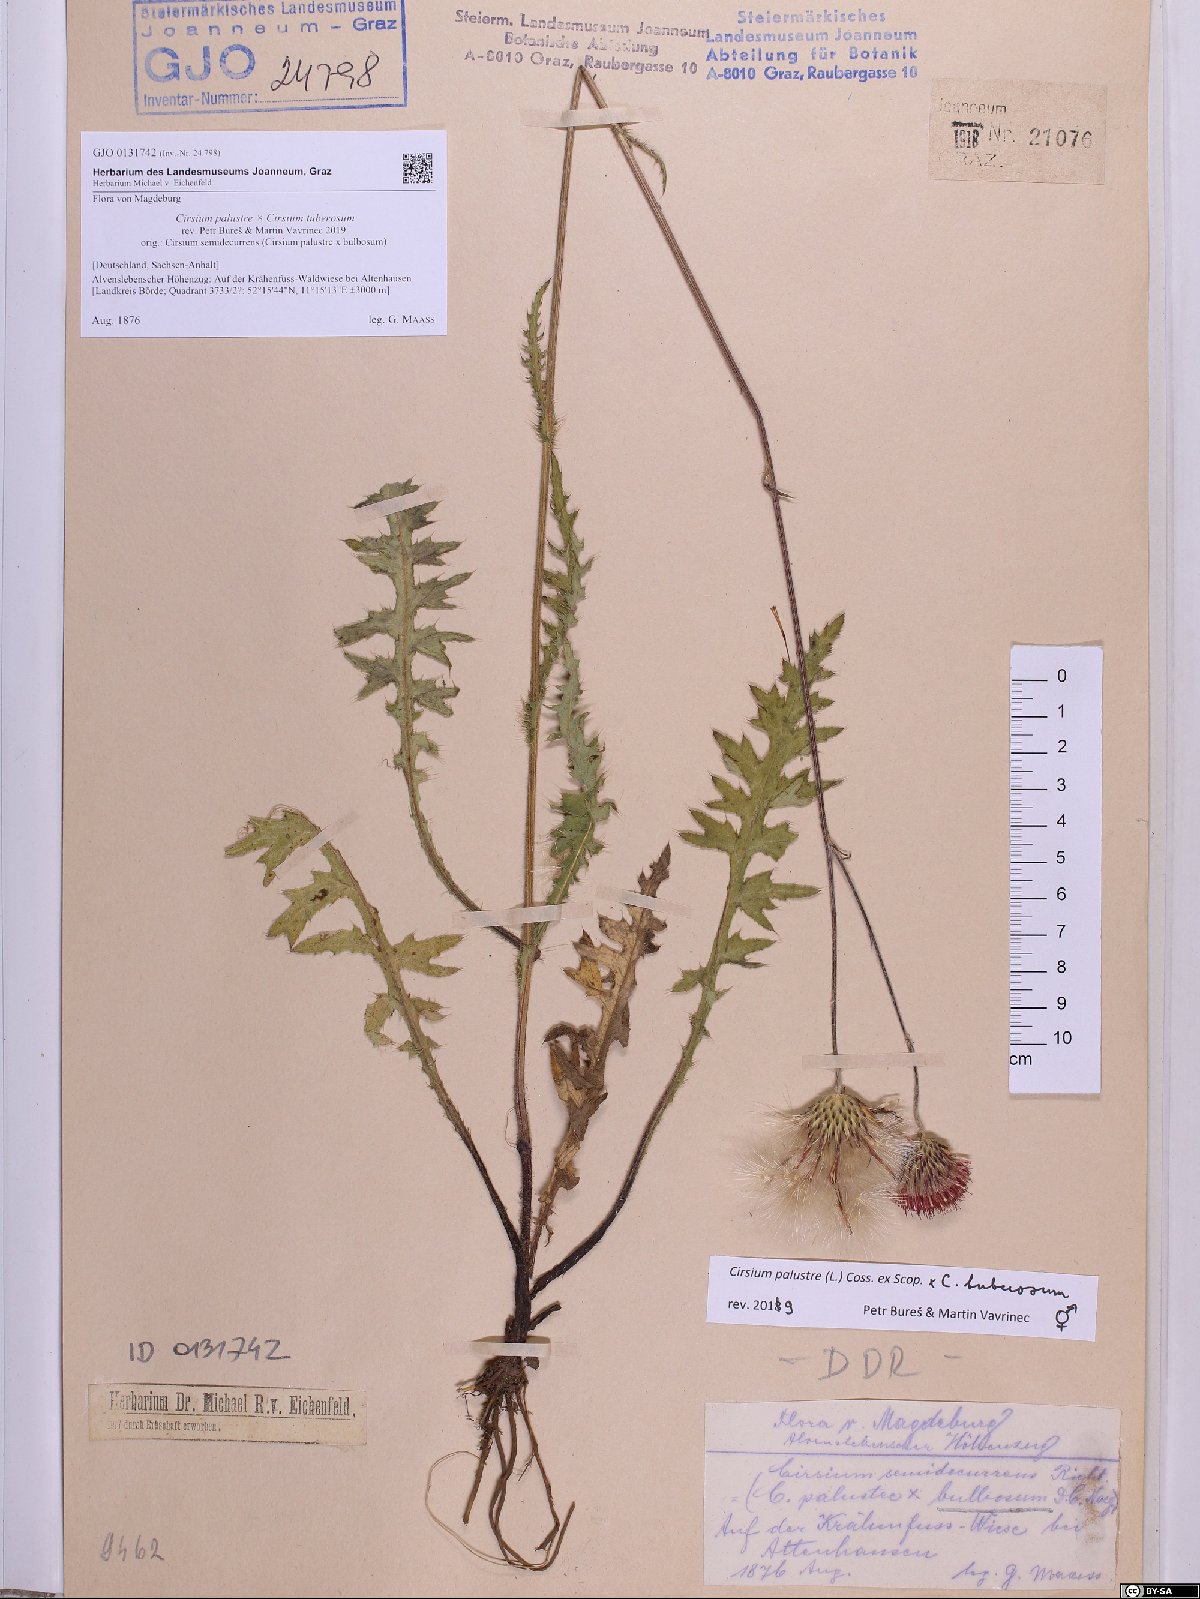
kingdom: Plantae
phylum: Tracheophyta
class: Magnoliopsida
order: Asterales
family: Asteraceae
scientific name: Asteraceae
